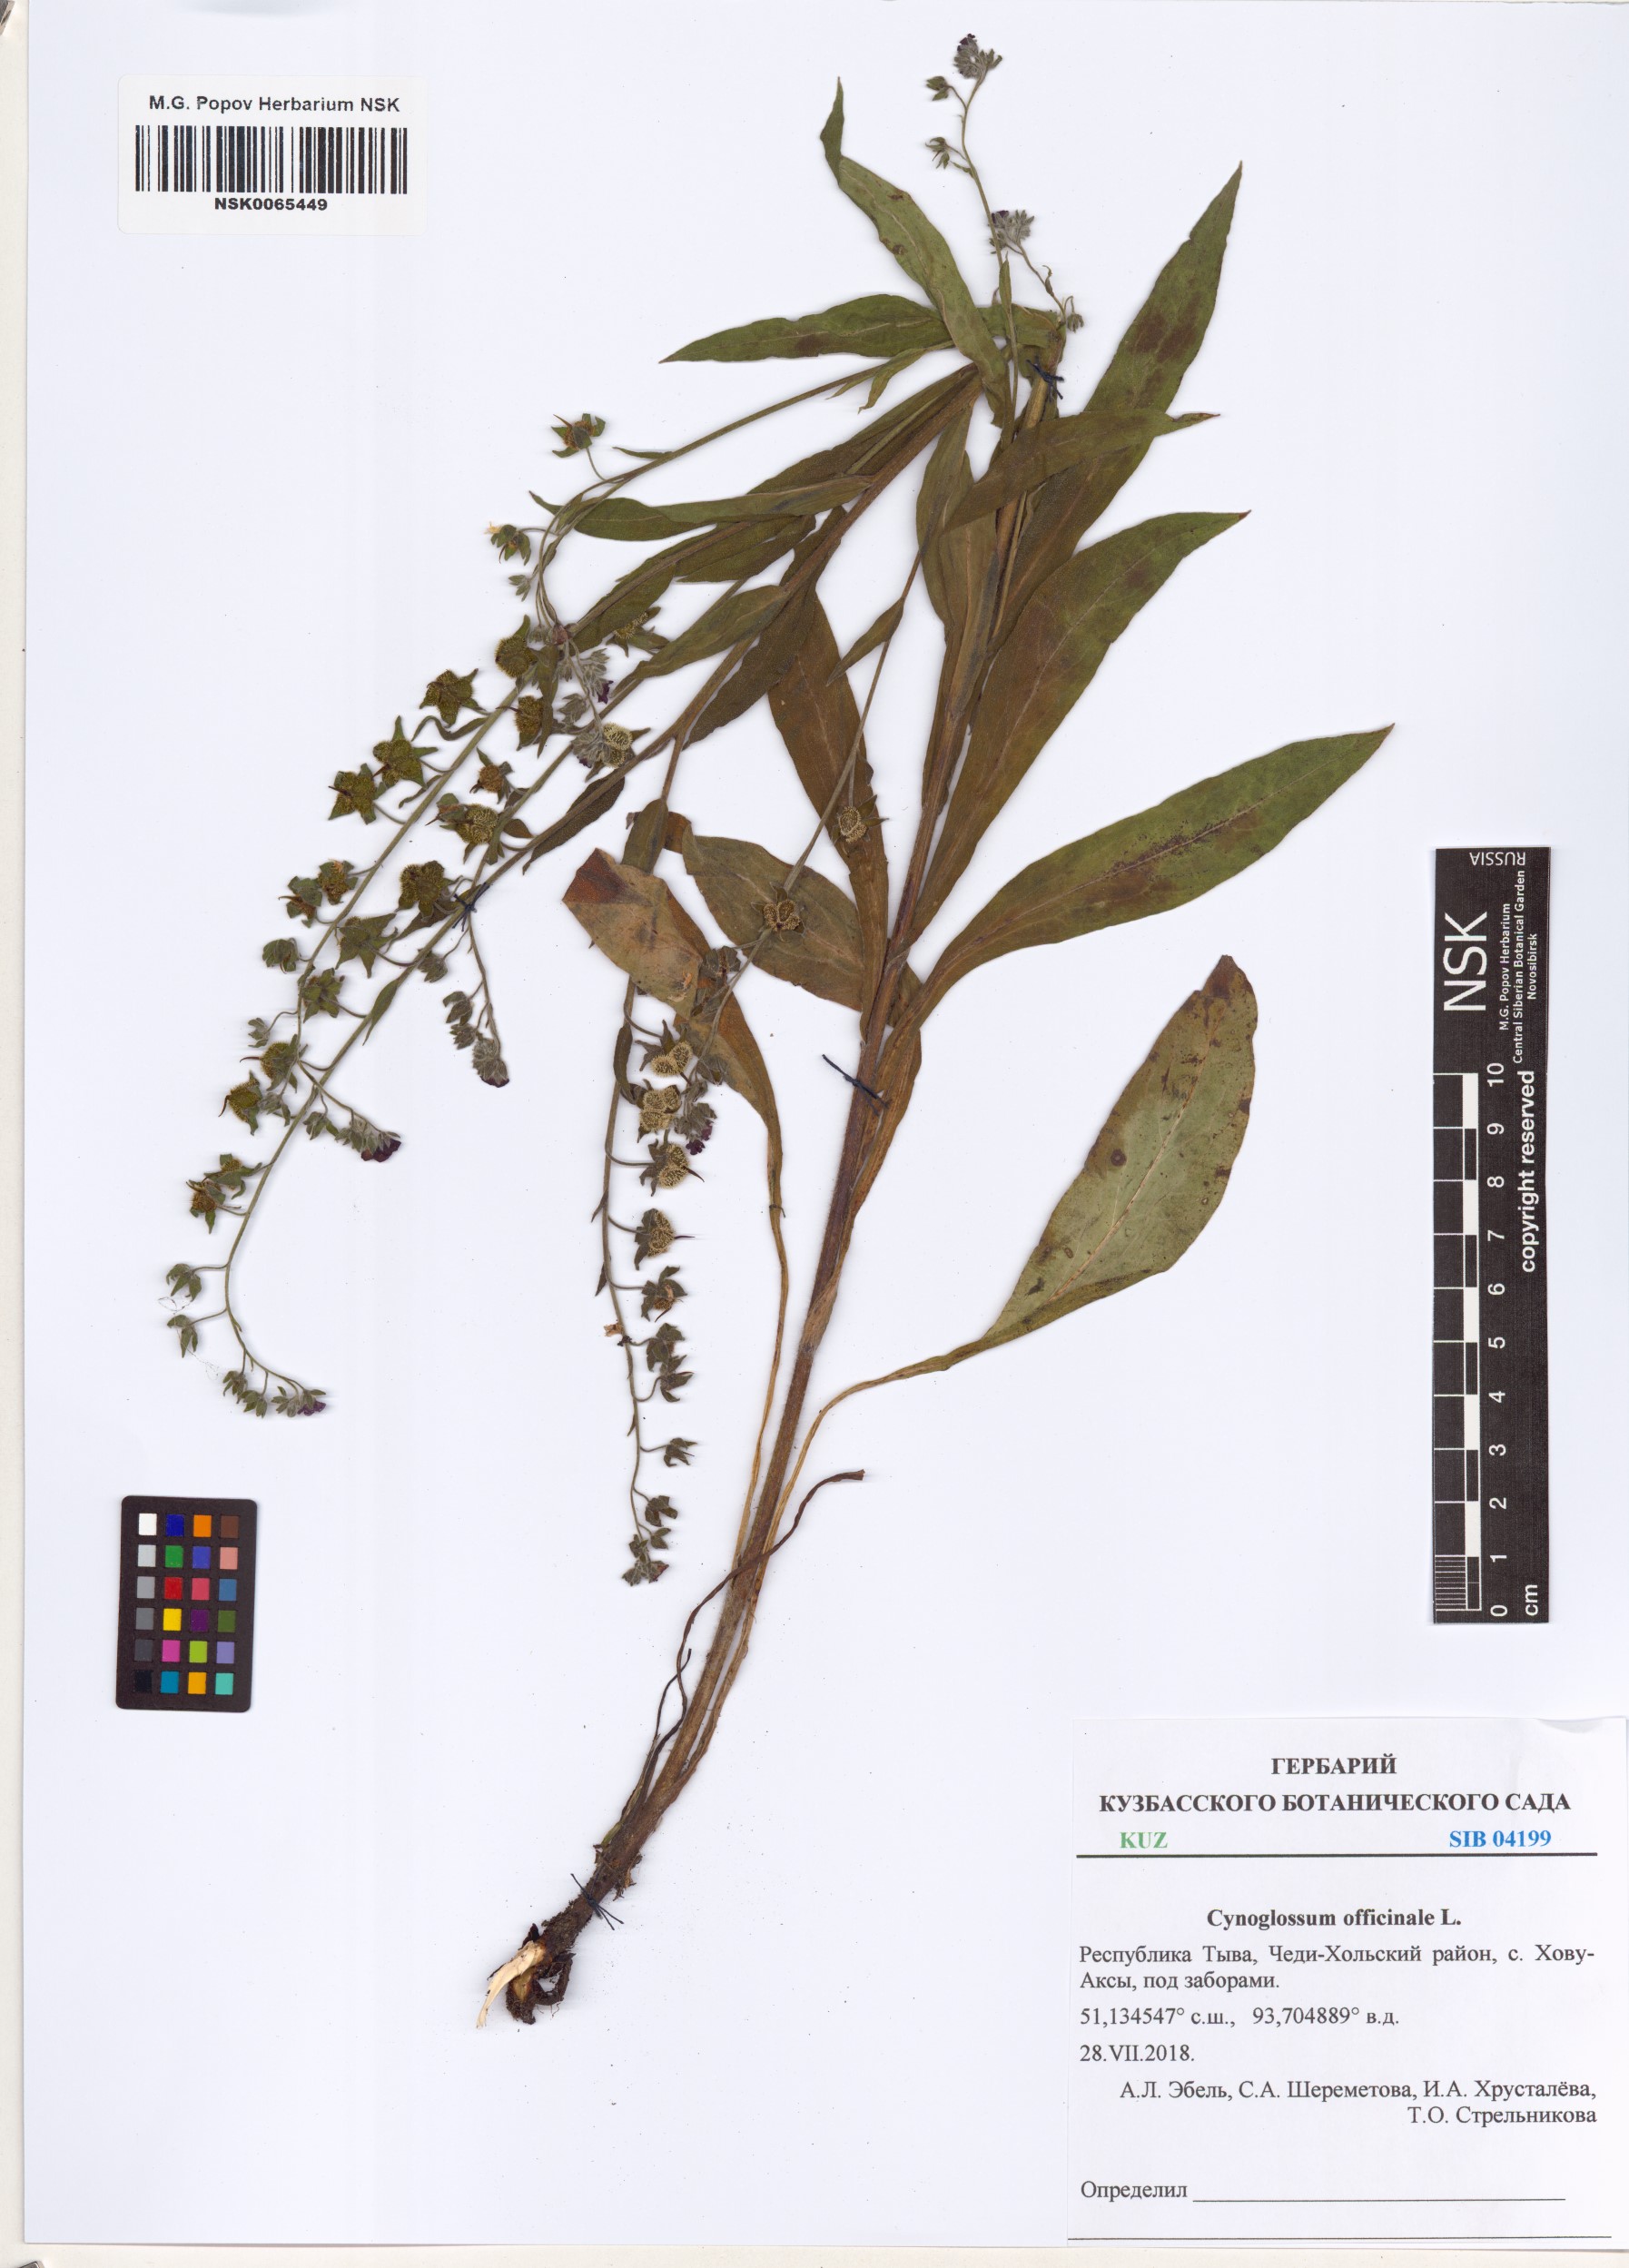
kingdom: Plantae
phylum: Tracheophyta
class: Magnoliopsida
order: Boraginales
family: Boraginaceae
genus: Cynoglossum
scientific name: Cynoglossum officinale
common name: Hound's-tongue
